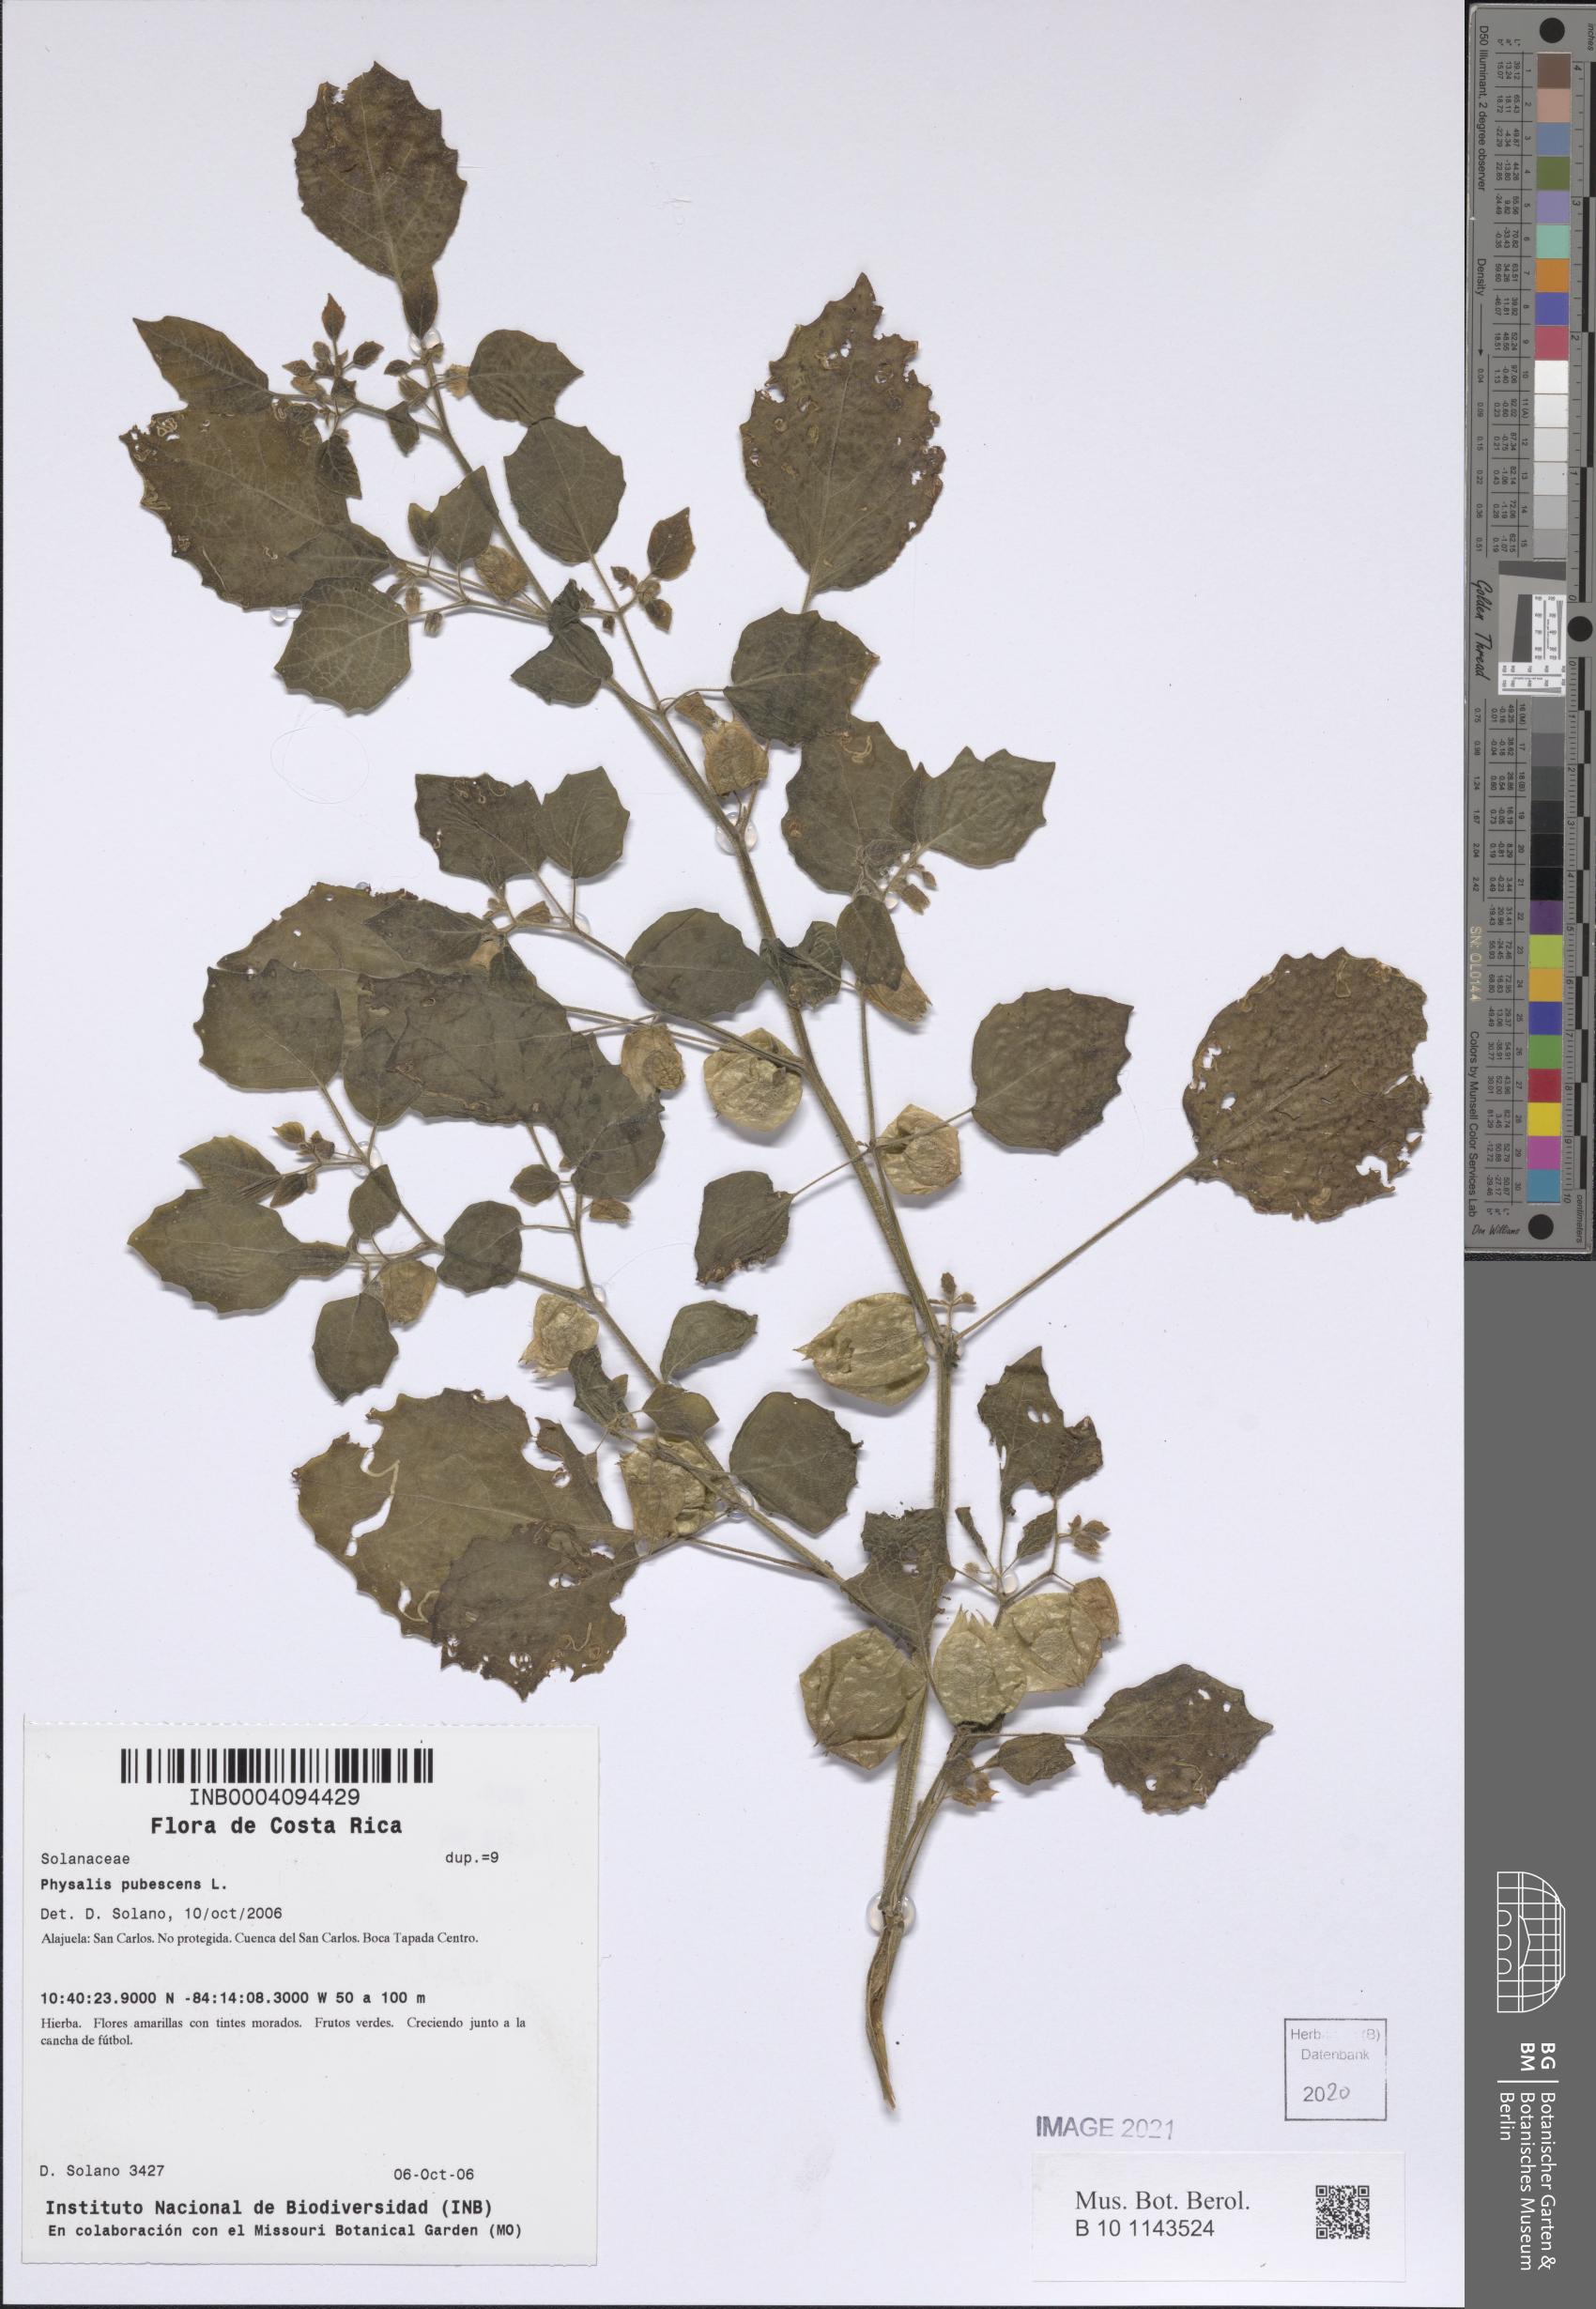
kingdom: Plantae
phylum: Tracheophyta
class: Magnoliopsida
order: Solanales
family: Solanaceae
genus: Physalis
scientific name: Physalis pubescens
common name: Downy ground-cherry
